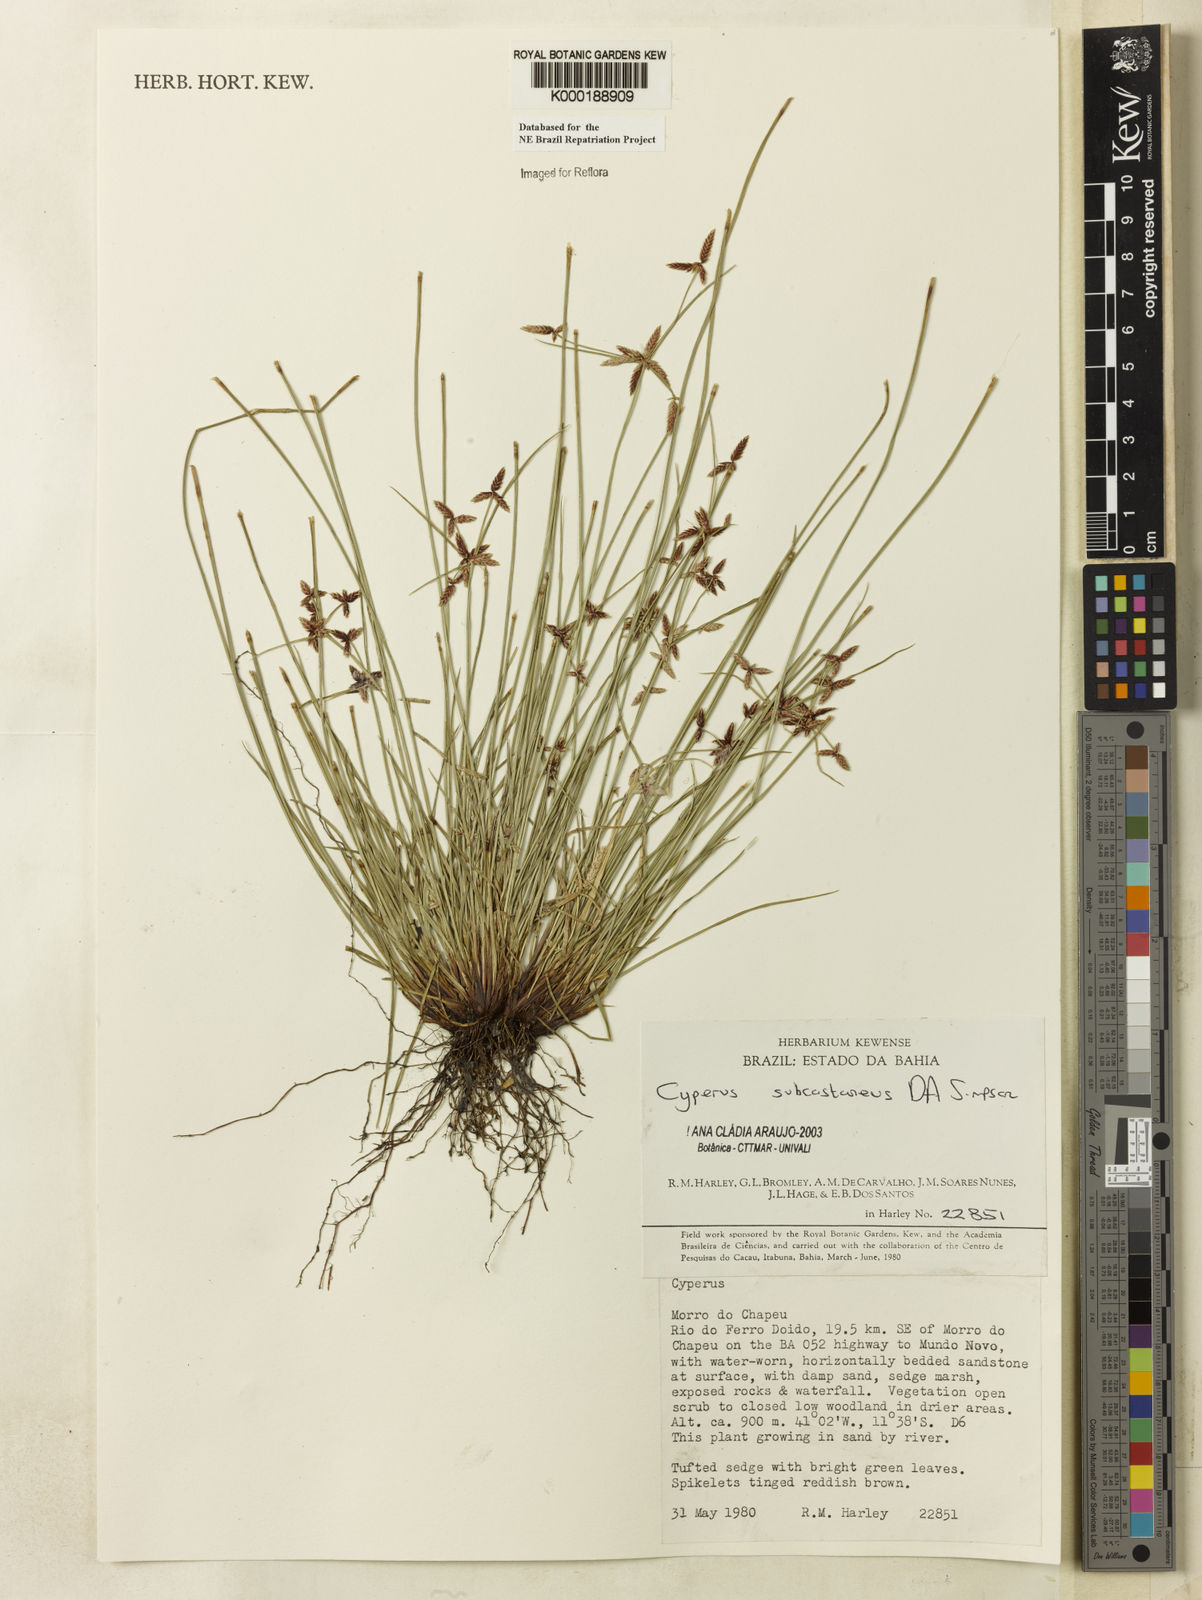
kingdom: Plantae
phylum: Tracheophyta
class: Liliopsida
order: Poales
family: Cyperaceae
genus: Cyperus
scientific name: Cyperus subcastaneus
